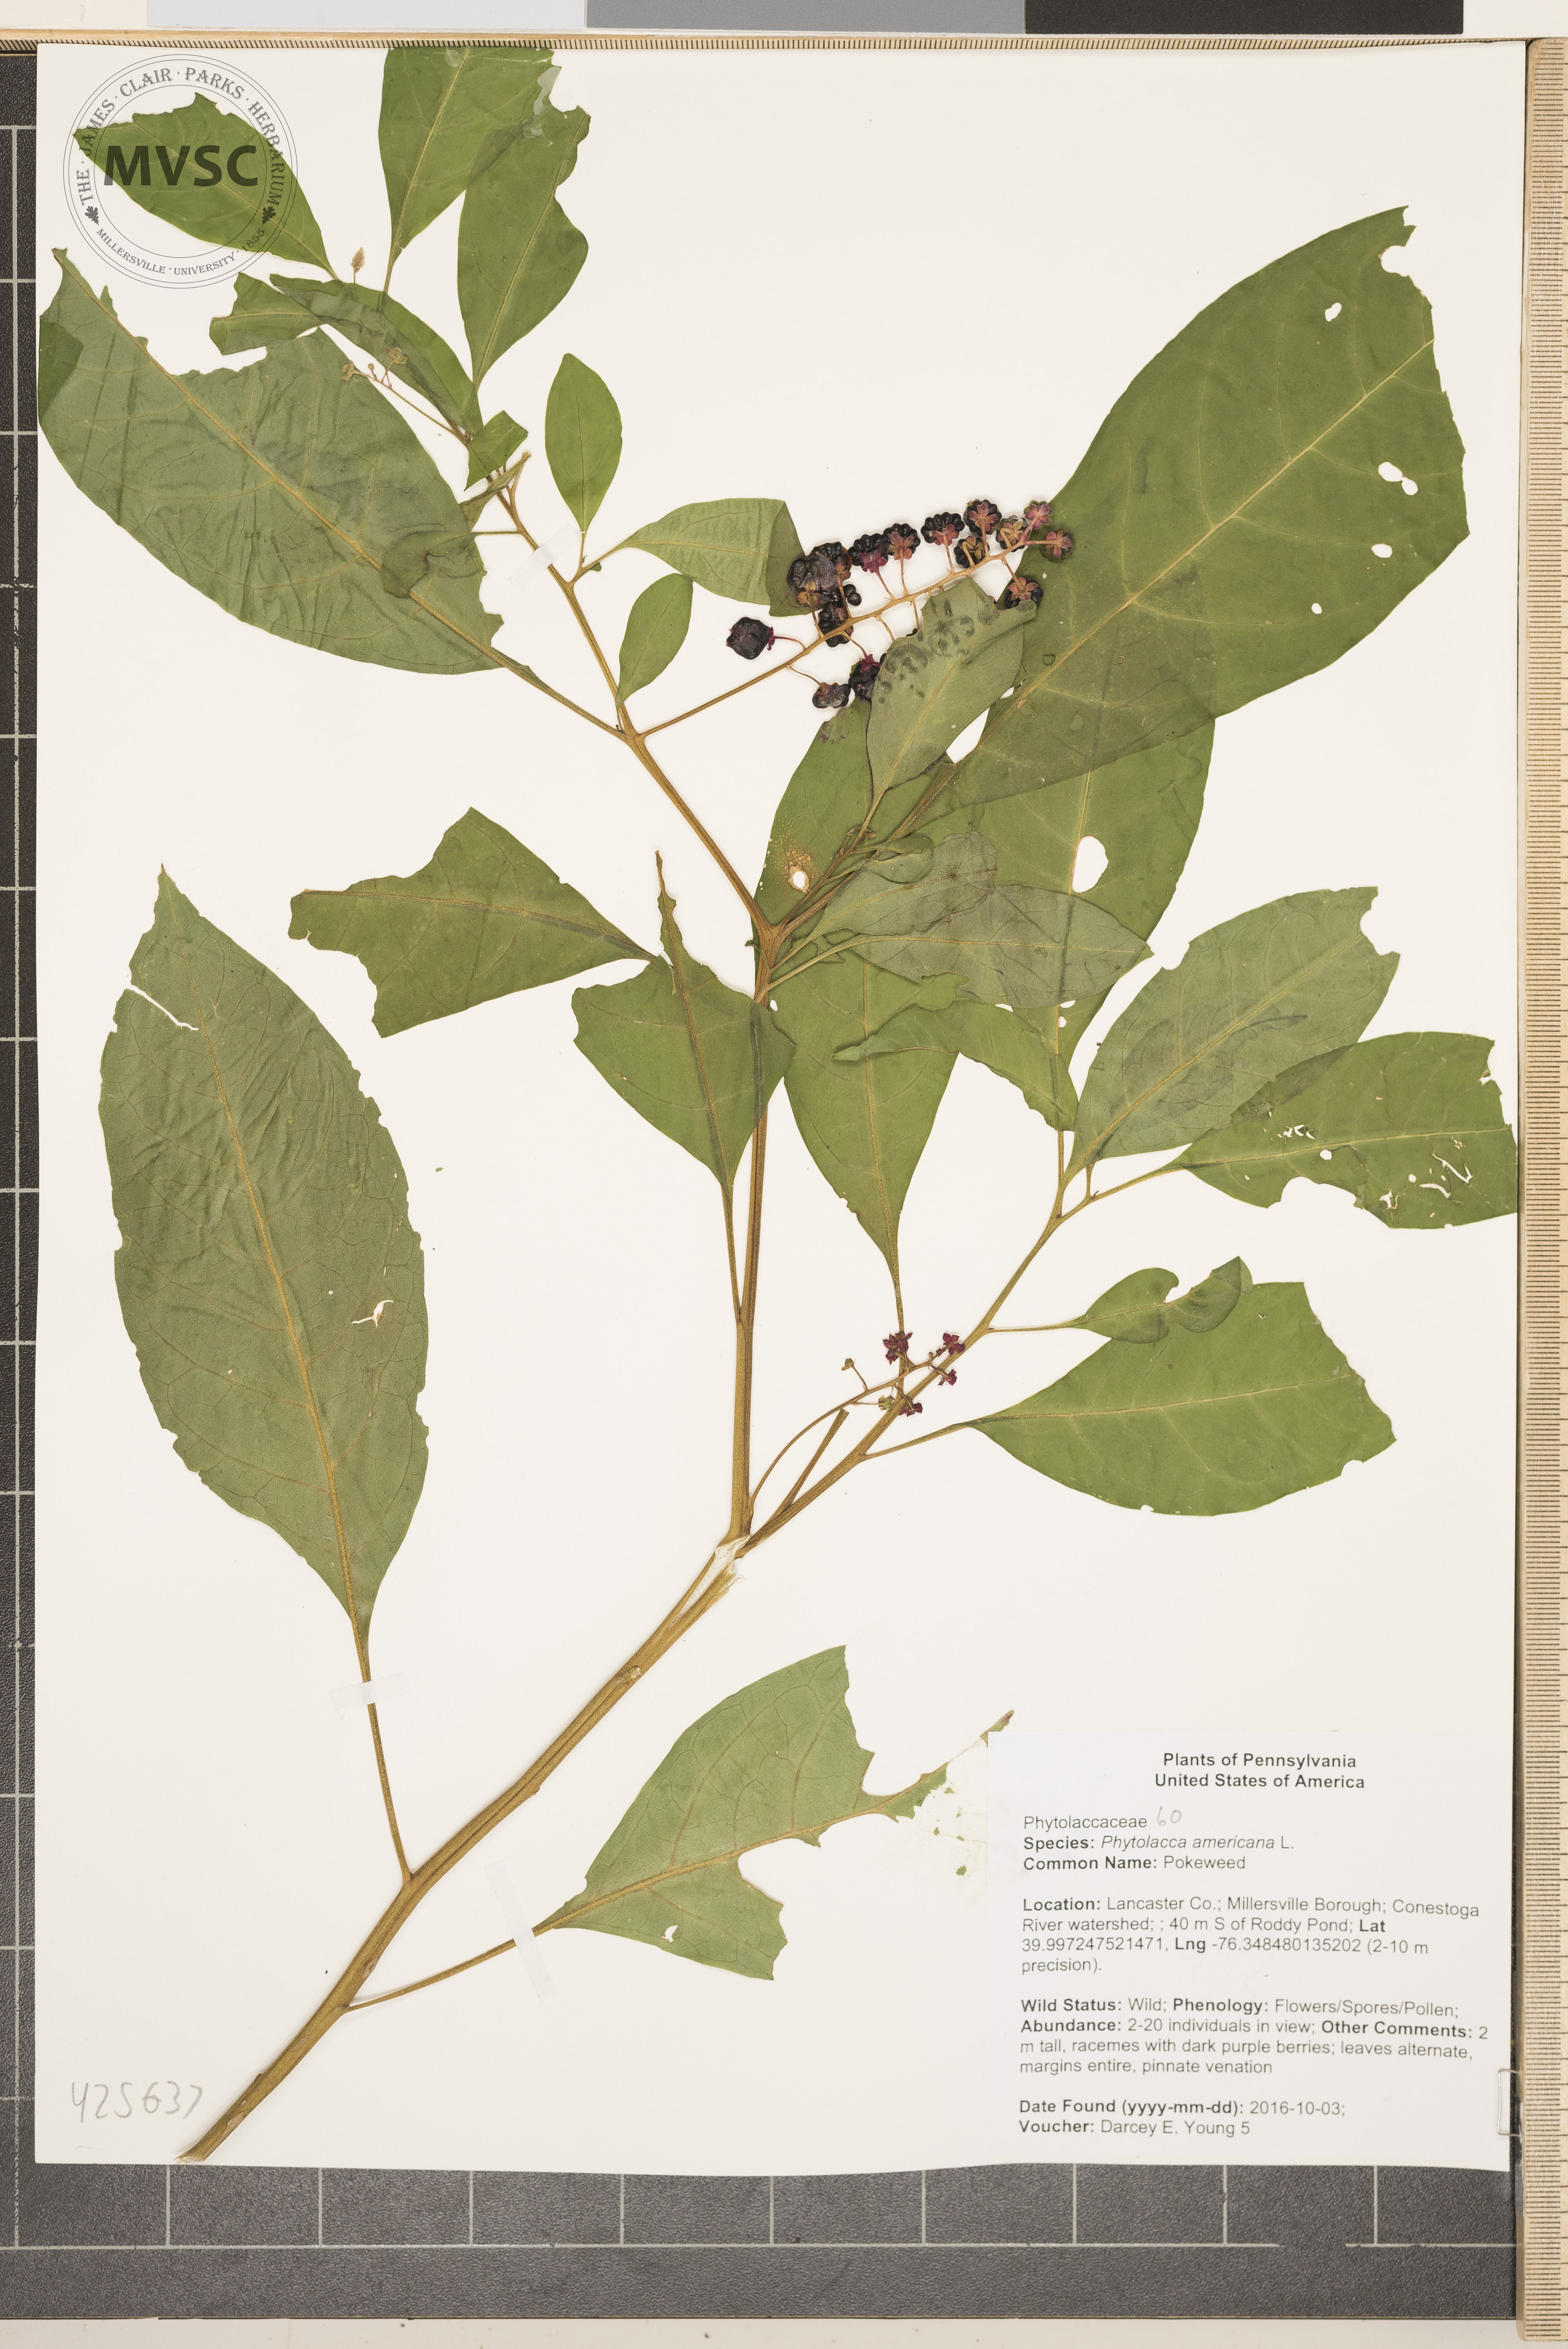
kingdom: Plantae
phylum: Tracheophyta
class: Magnoliopsida
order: Caryophyllales
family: Phytolaccaceae
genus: Phytolacca
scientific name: Phytolacca americana
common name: Pokeweed
